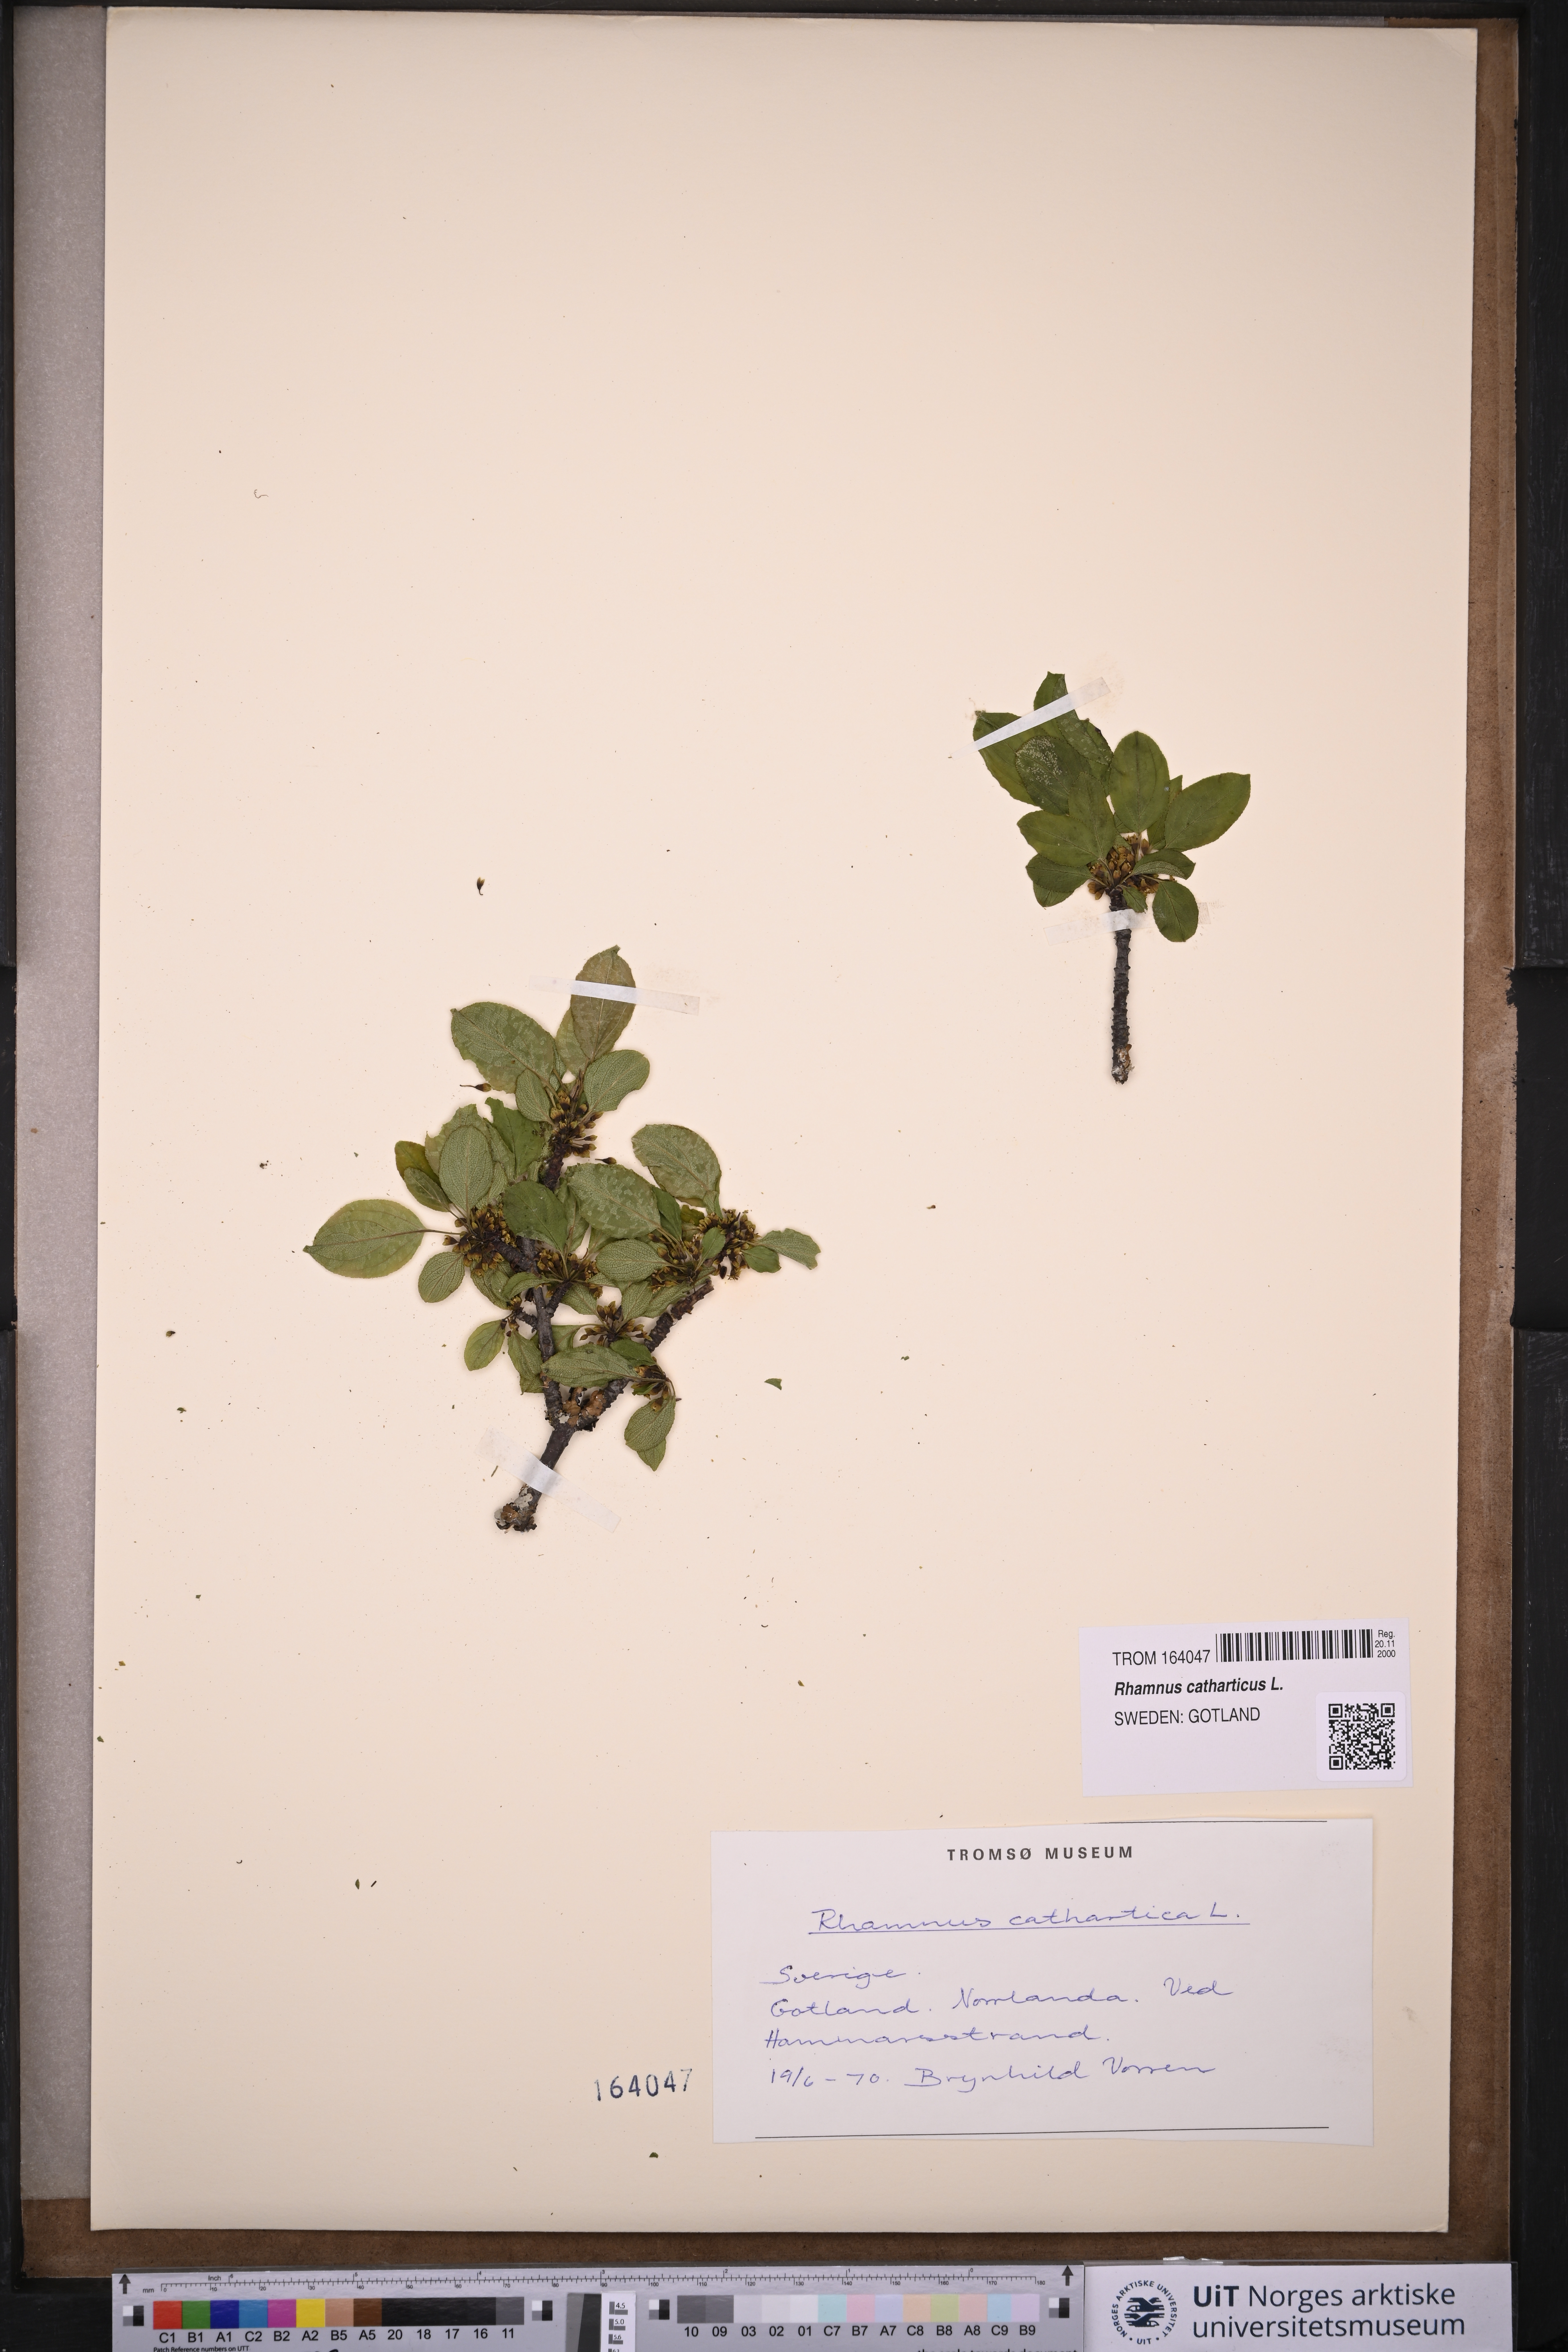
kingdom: Plantae
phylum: Tracheophyta
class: Magnoliopsida
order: Rosales
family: Rhamnaceae
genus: Rhamnus
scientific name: Rhamnus cathartica
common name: Common buckthorn
